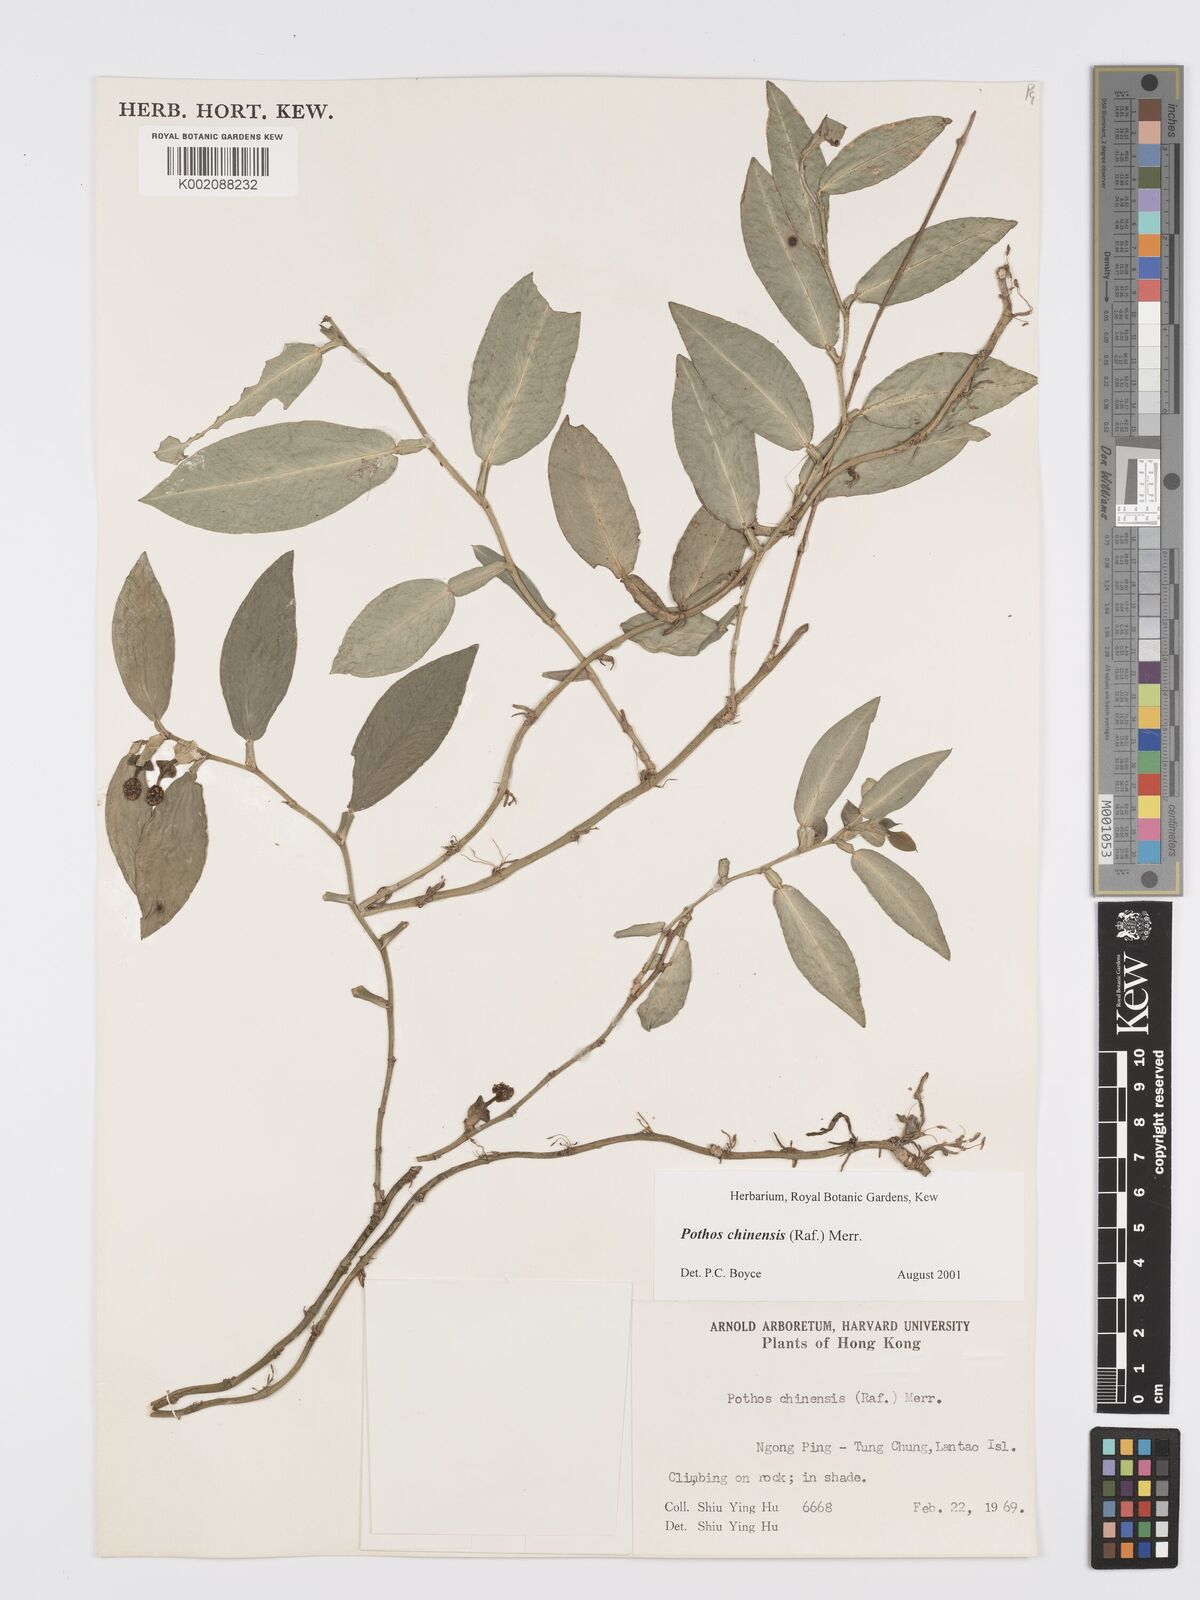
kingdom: Plantae
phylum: Tracheophyta
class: Liliopsida
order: Alismatales
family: Araceae
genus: Pothos
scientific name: Pothos chinensis
